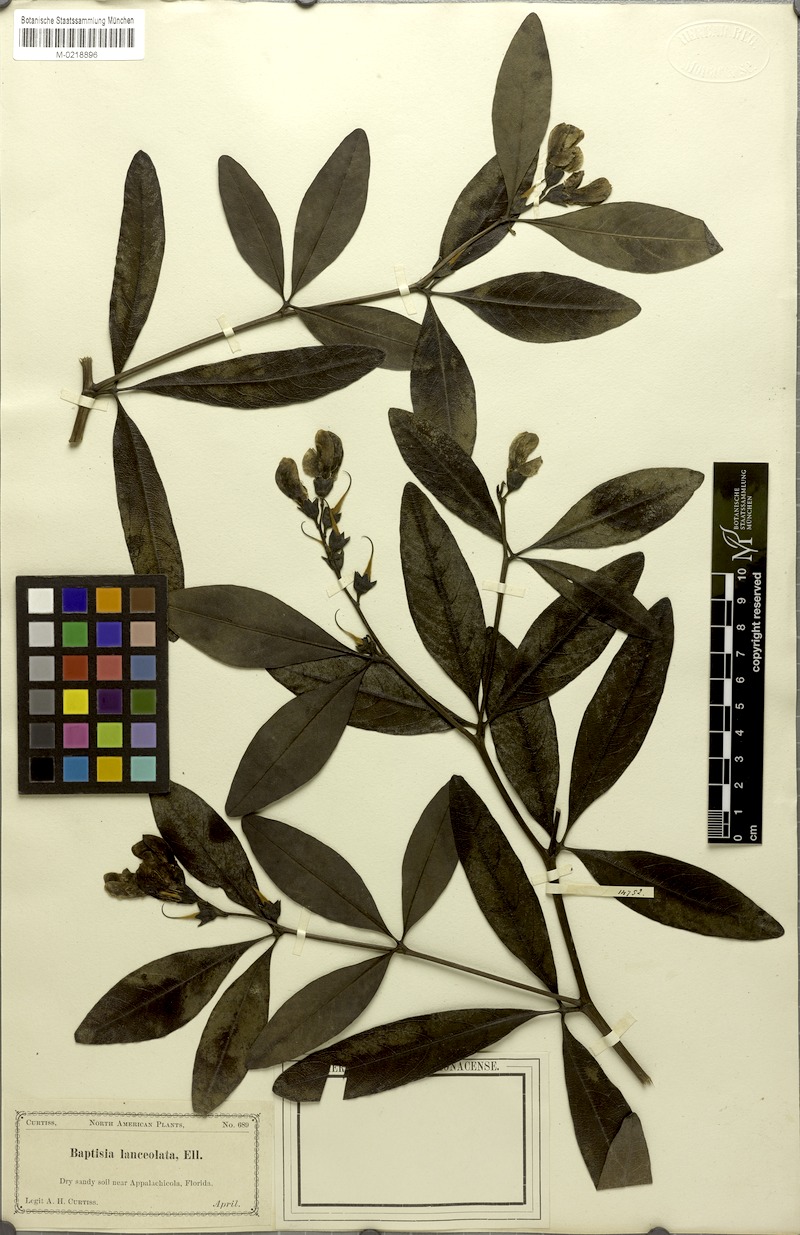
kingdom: Plantae
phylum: Tracheophyta
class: Magnoliopsida
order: Fabales
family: Fabaceae
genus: Baptisia
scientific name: Baptisia lanceolata
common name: Gopherweed
